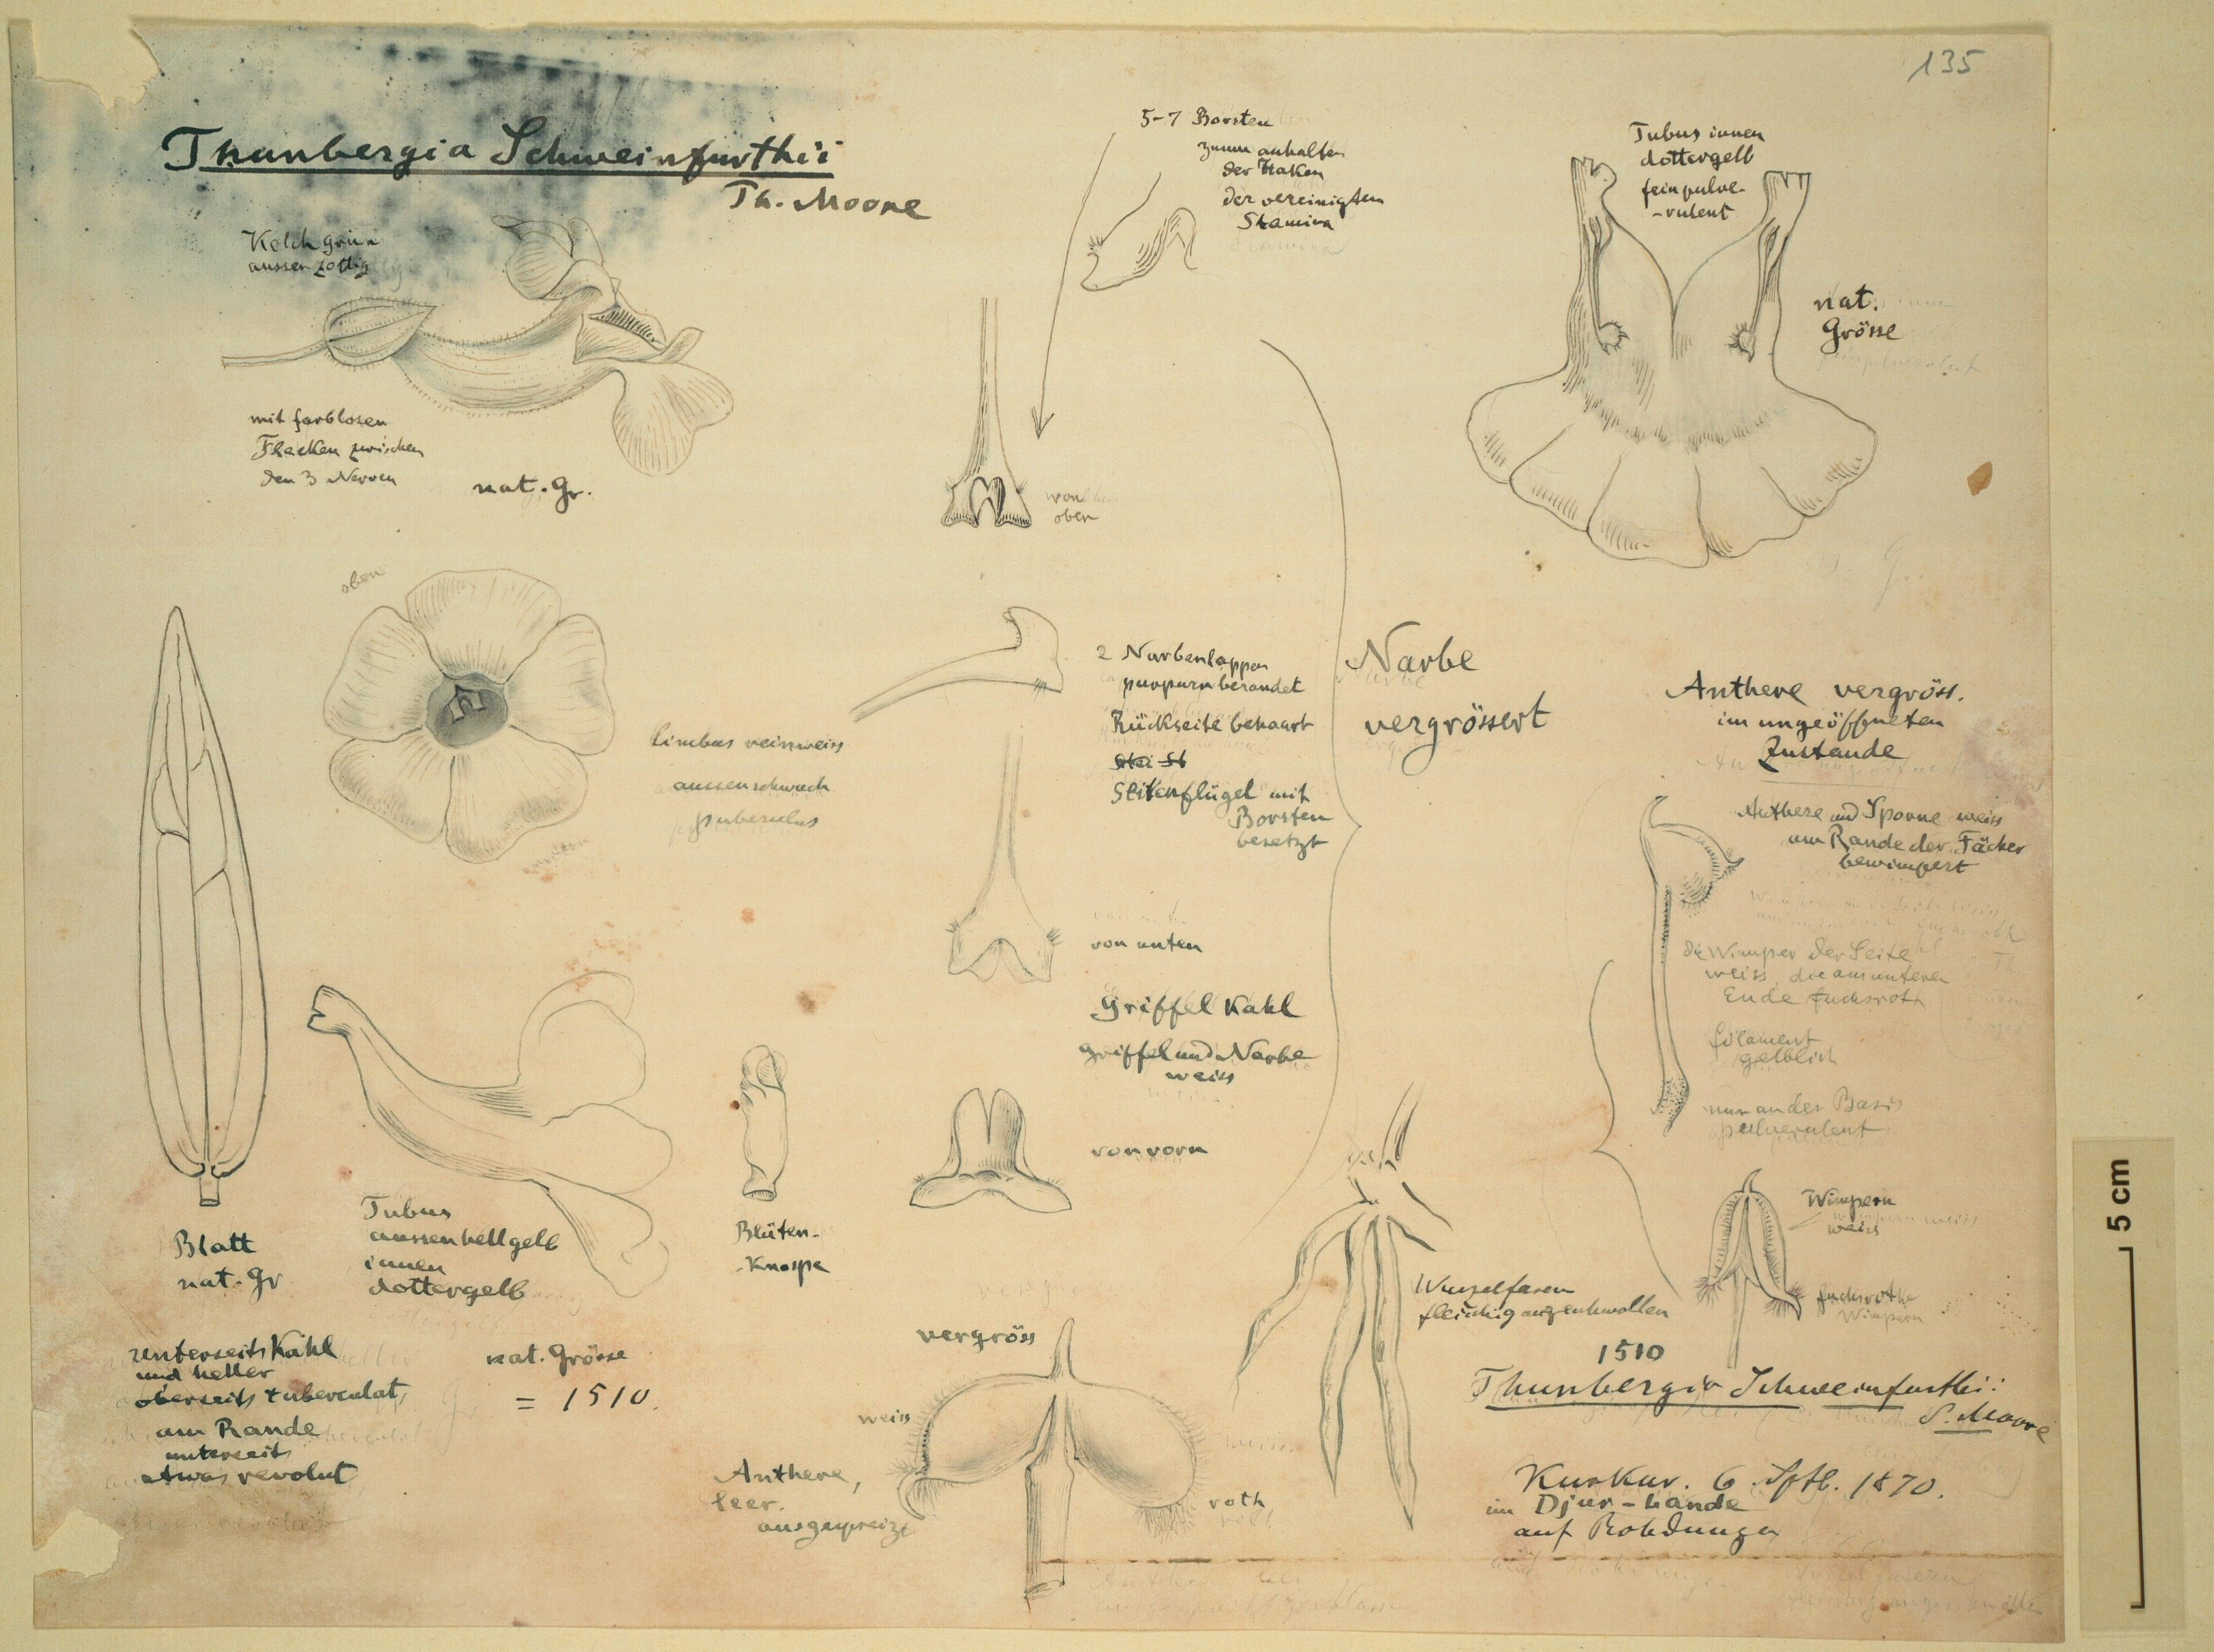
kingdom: Plantae
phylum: Tracheophyta
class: Magnoliopsida
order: Lamiales
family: Acanthaceae
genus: Hygrophila
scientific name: Hygrophila africana
